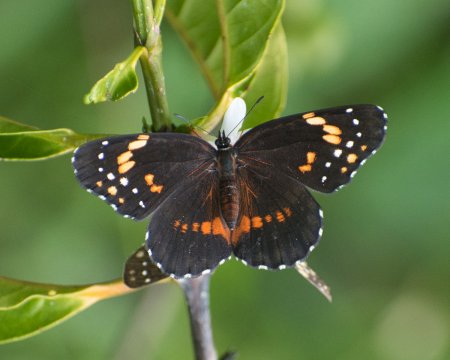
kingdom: Animalia
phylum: Arthropoda
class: Insecta
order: Lepidoptera
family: Nymphalidae
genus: Chlosyne
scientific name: Chlosyne lacinia
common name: Bordered Patch
